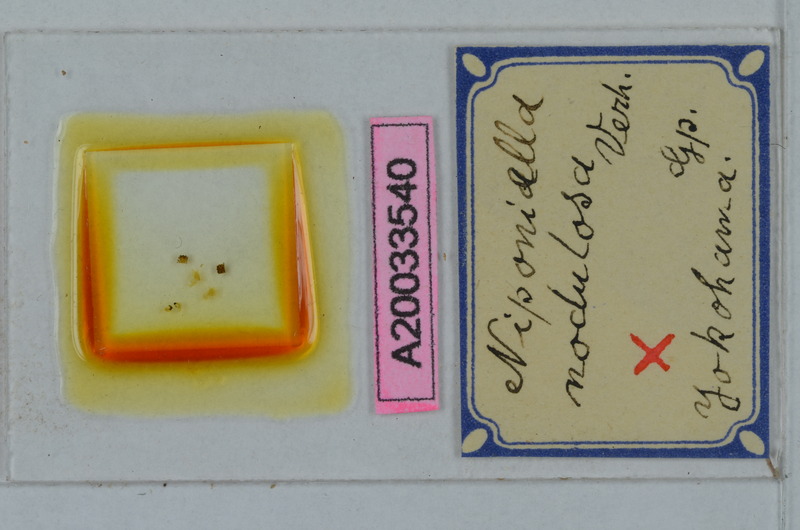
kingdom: Animalia
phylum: Arthropoda
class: Diplopoda
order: Polydesmida
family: Cryptodesmidae
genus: Niponia
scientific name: Niponia nodulosa
